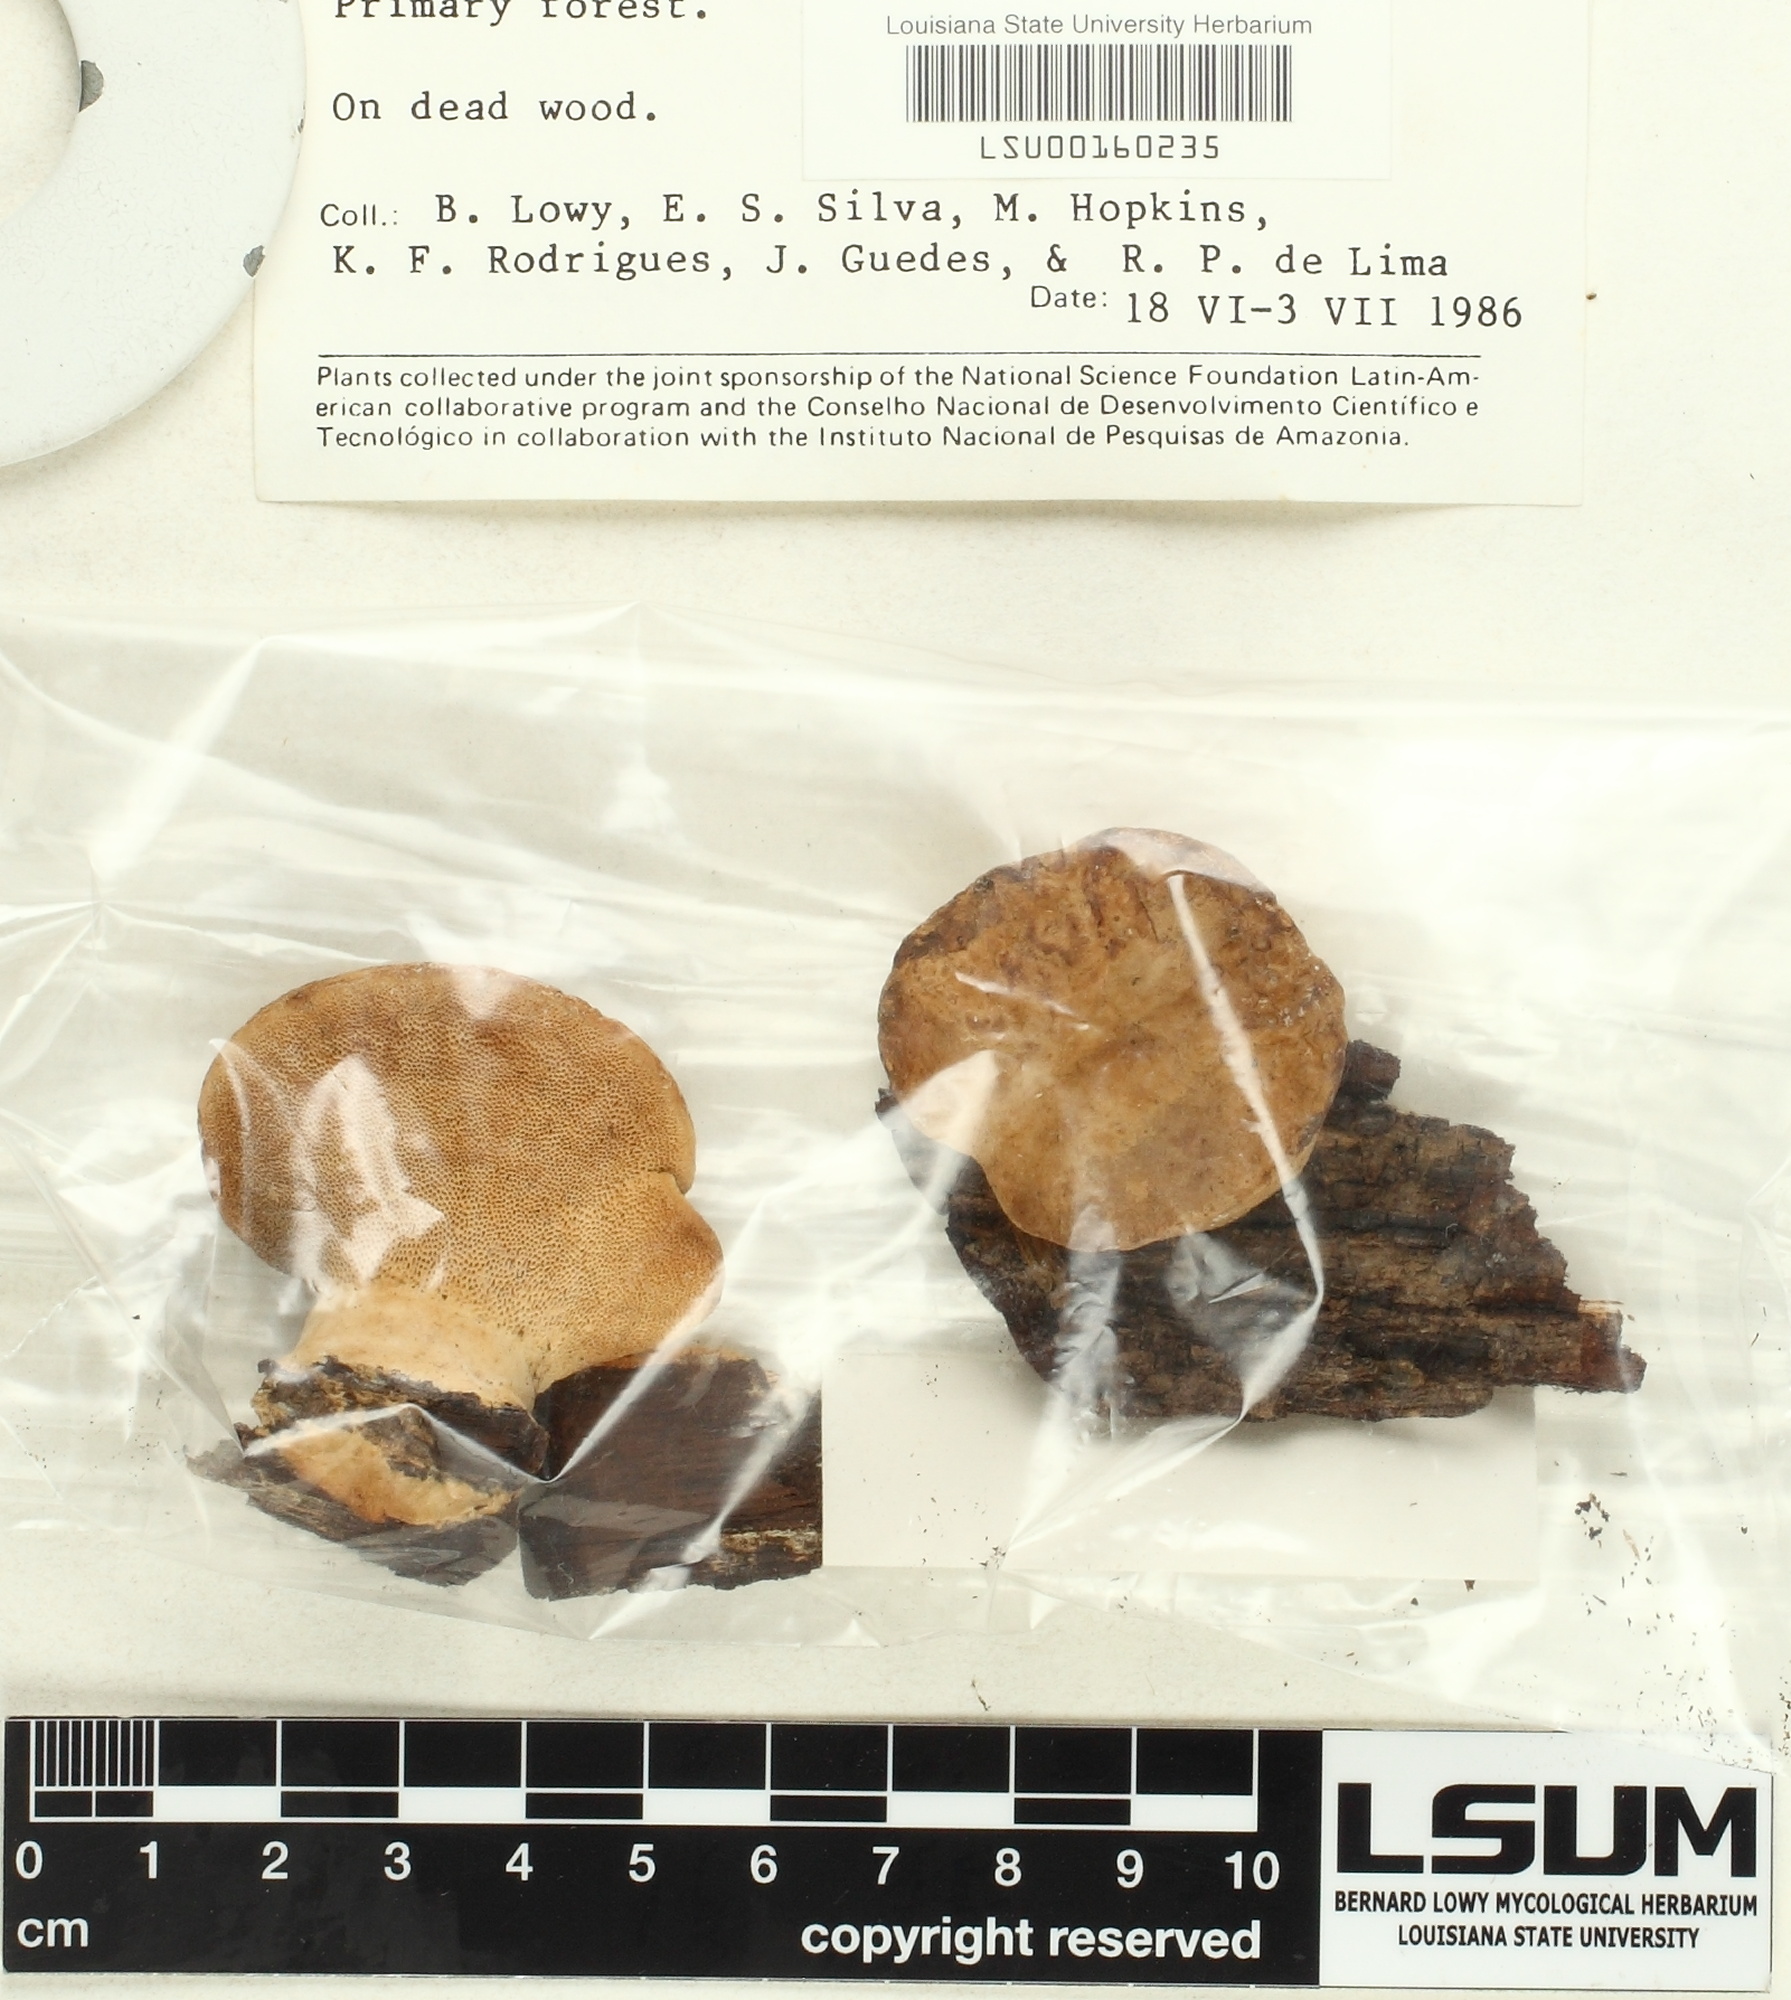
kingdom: Fungi
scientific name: Fungi
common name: Fungi
